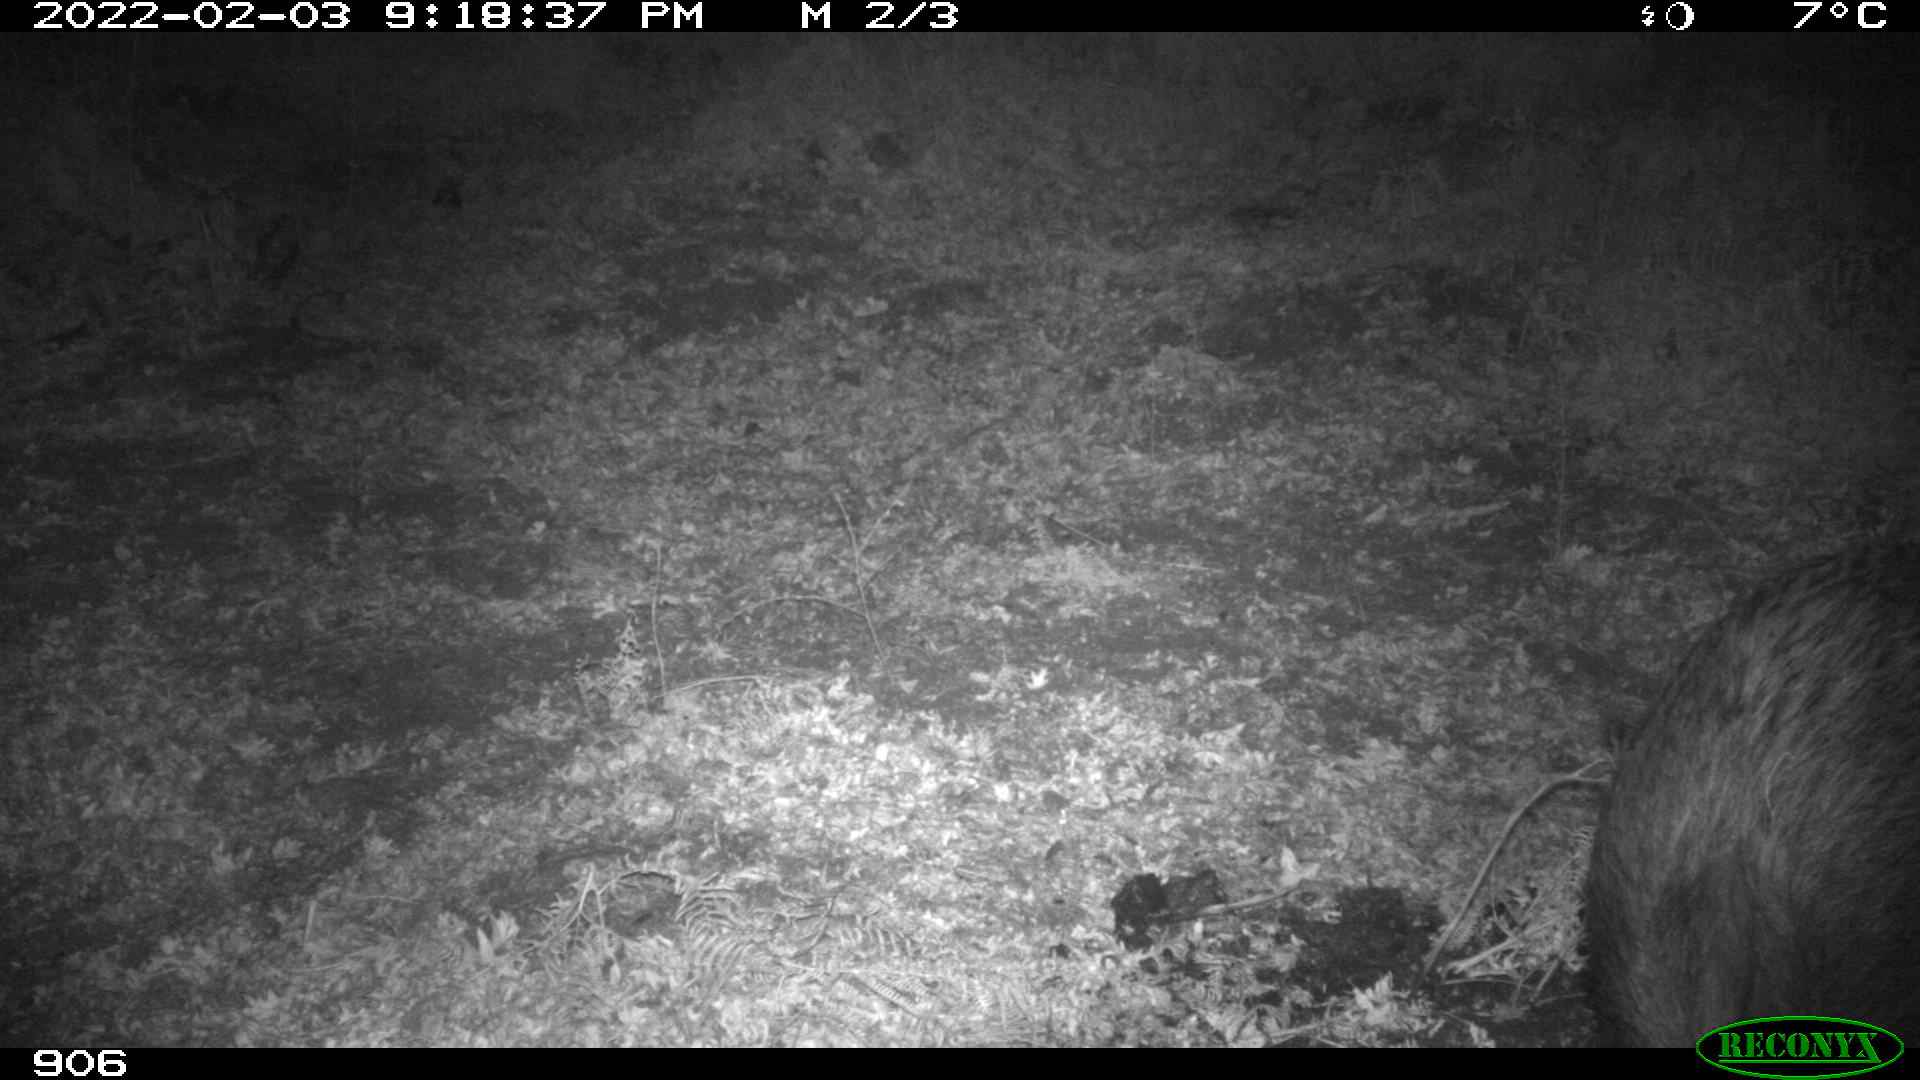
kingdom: Animalia
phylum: Chordata
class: Mammalia
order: Artiodactyla
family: Suidae
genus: Sus
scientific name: Sus scrofa
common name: Wild boar
